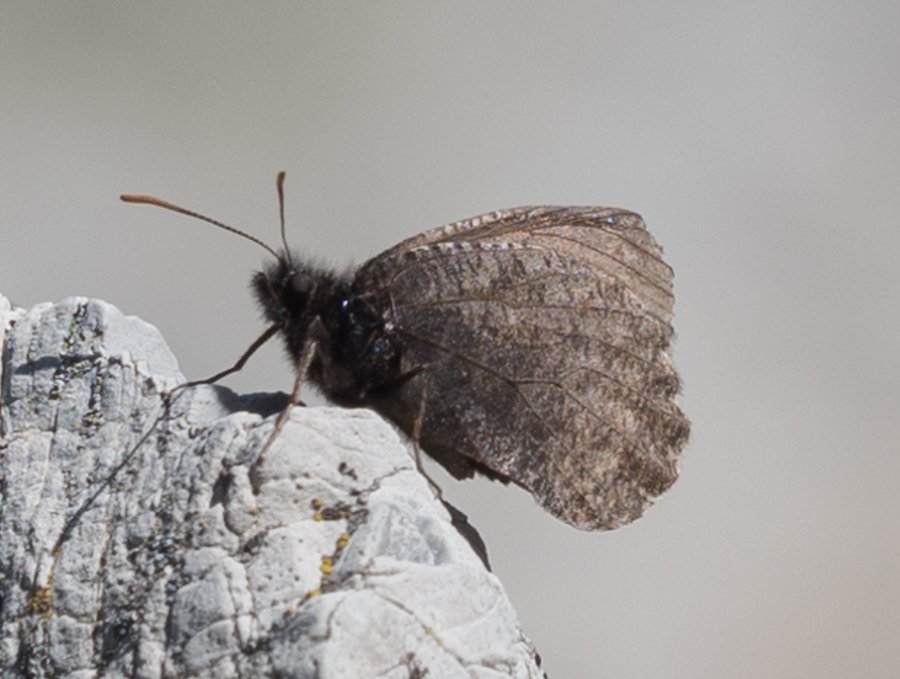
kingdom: Animalia
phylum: Arthropoda
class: Insecta
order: Lepidoptera
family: Nymphalidae
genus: Oeneis
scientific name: Oeneis melissa
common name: Melissa Arctic
